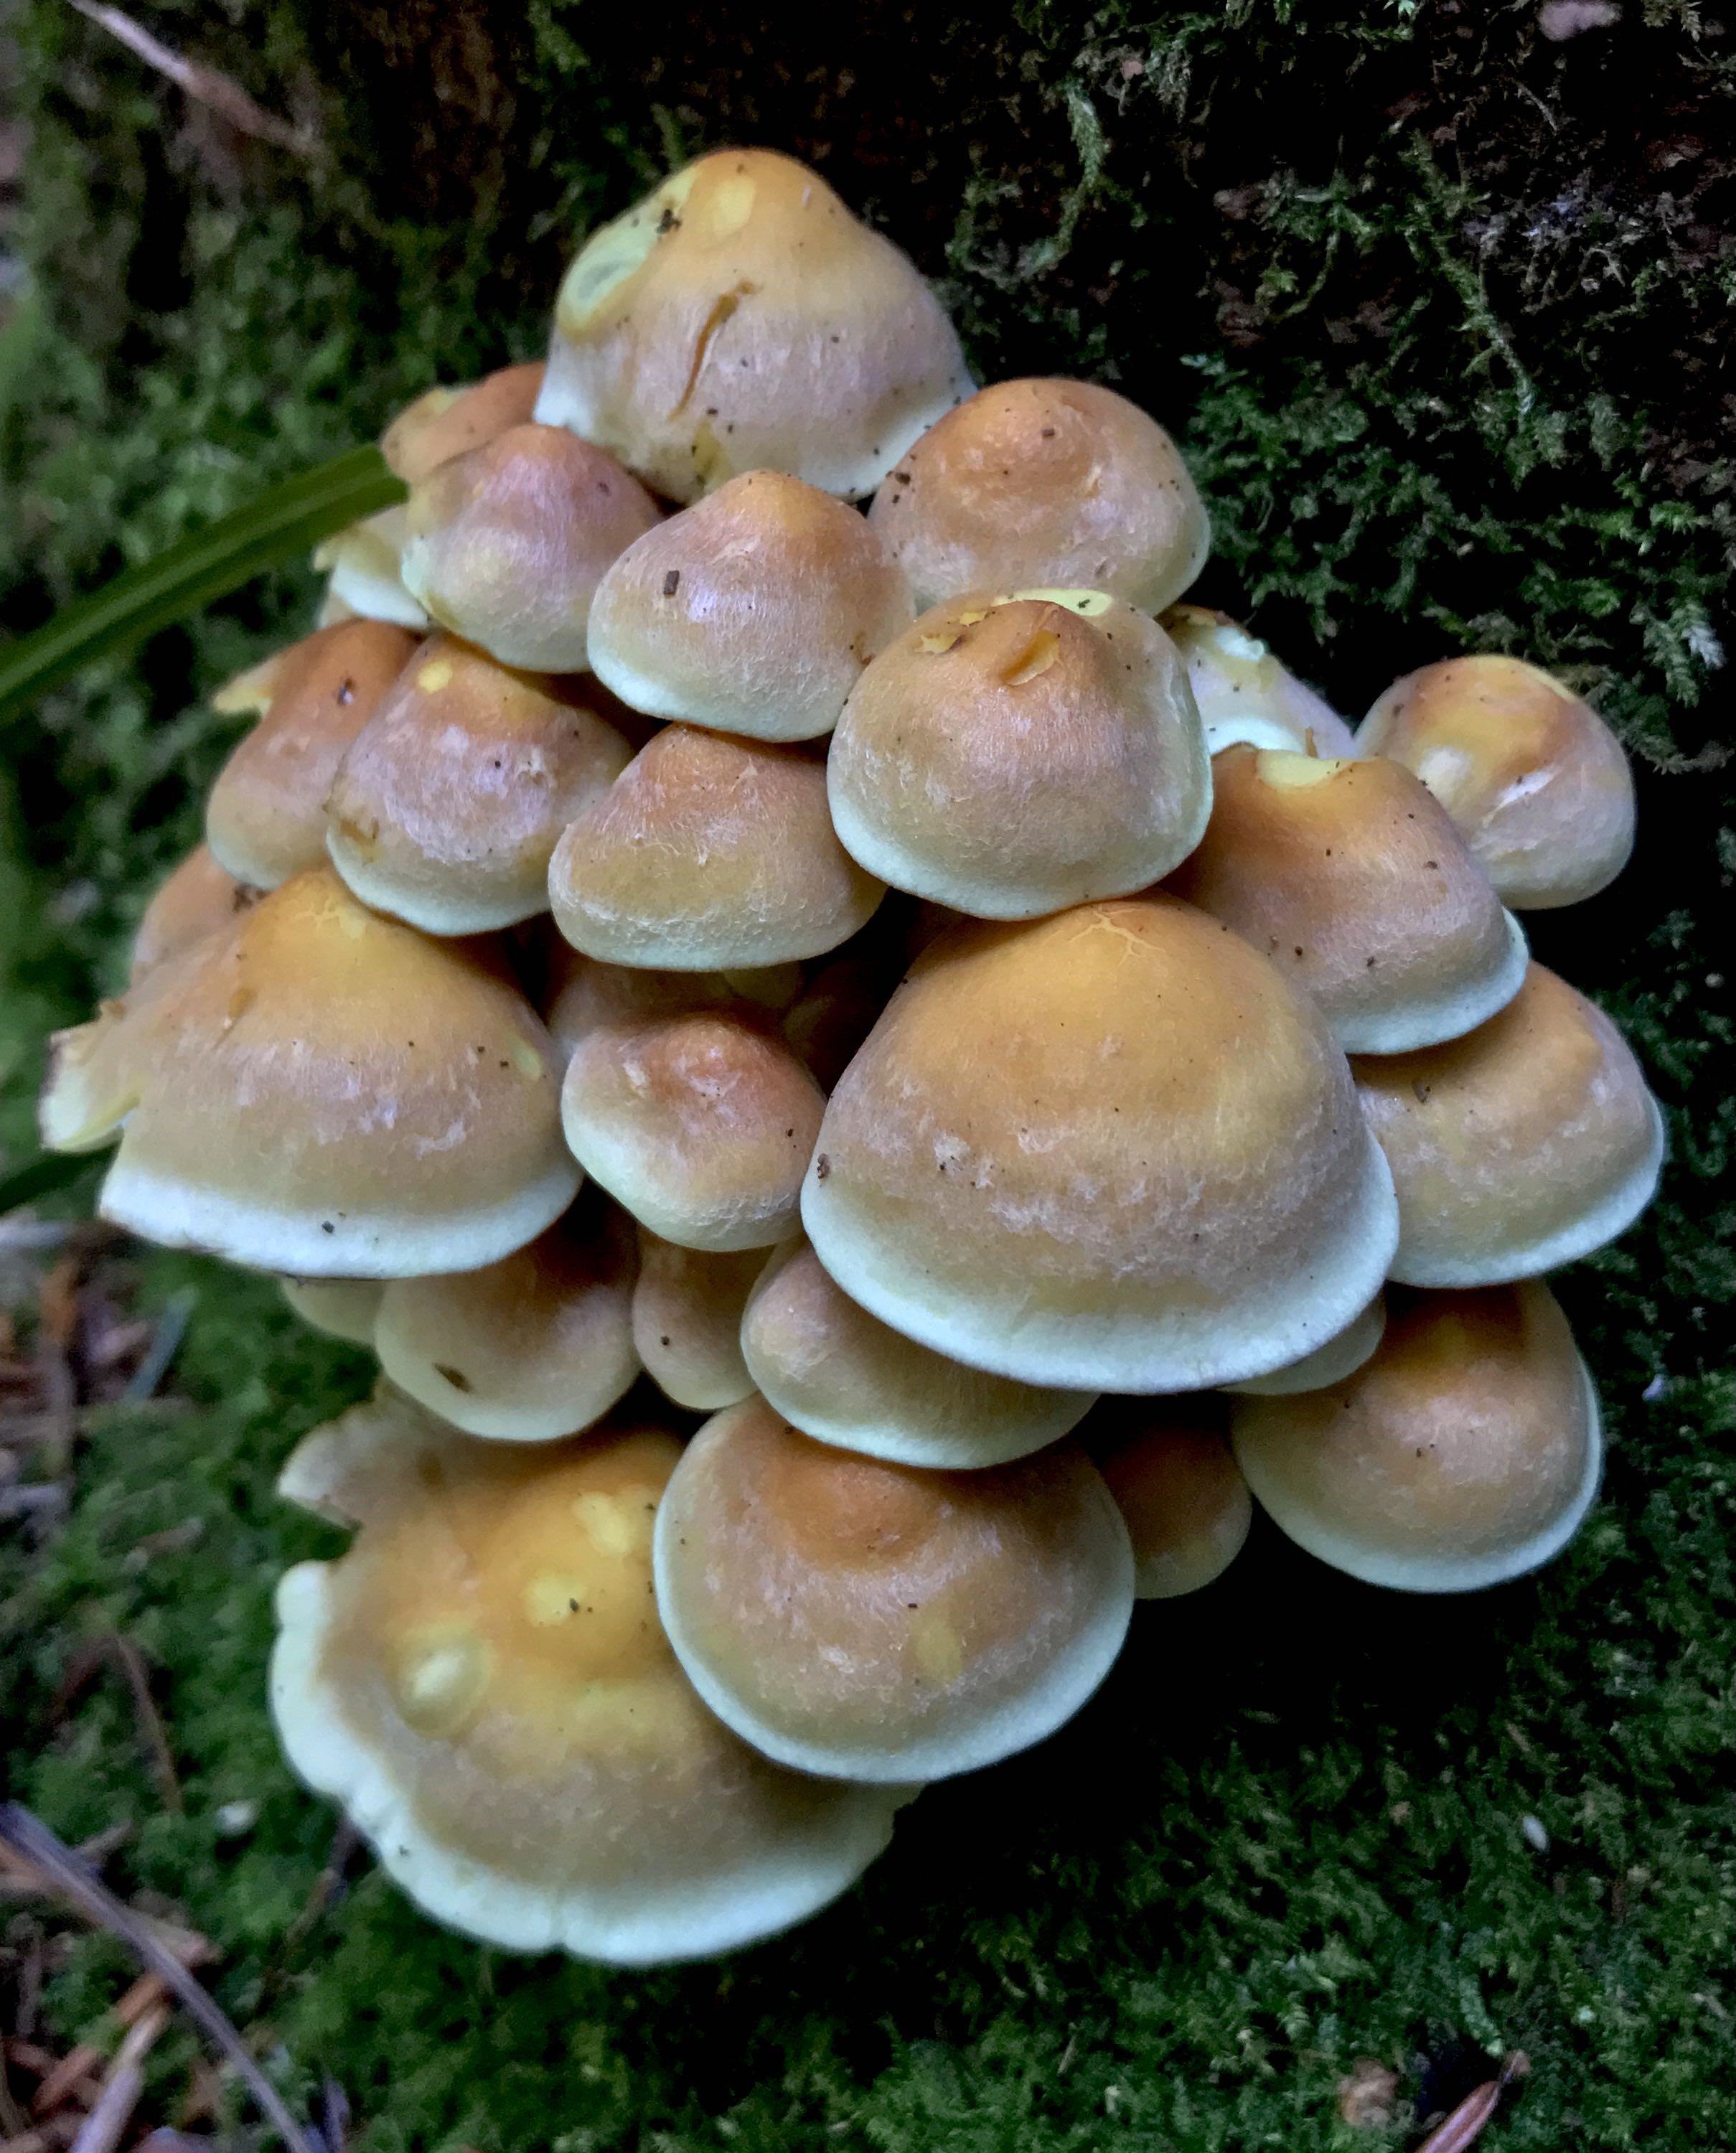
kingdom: Fungi
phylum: Basidiomycota
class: Agaricomycetes
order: Agaricales
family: Strophariaceae
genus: Hypholoma
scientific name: Hypholoma fasciculare
